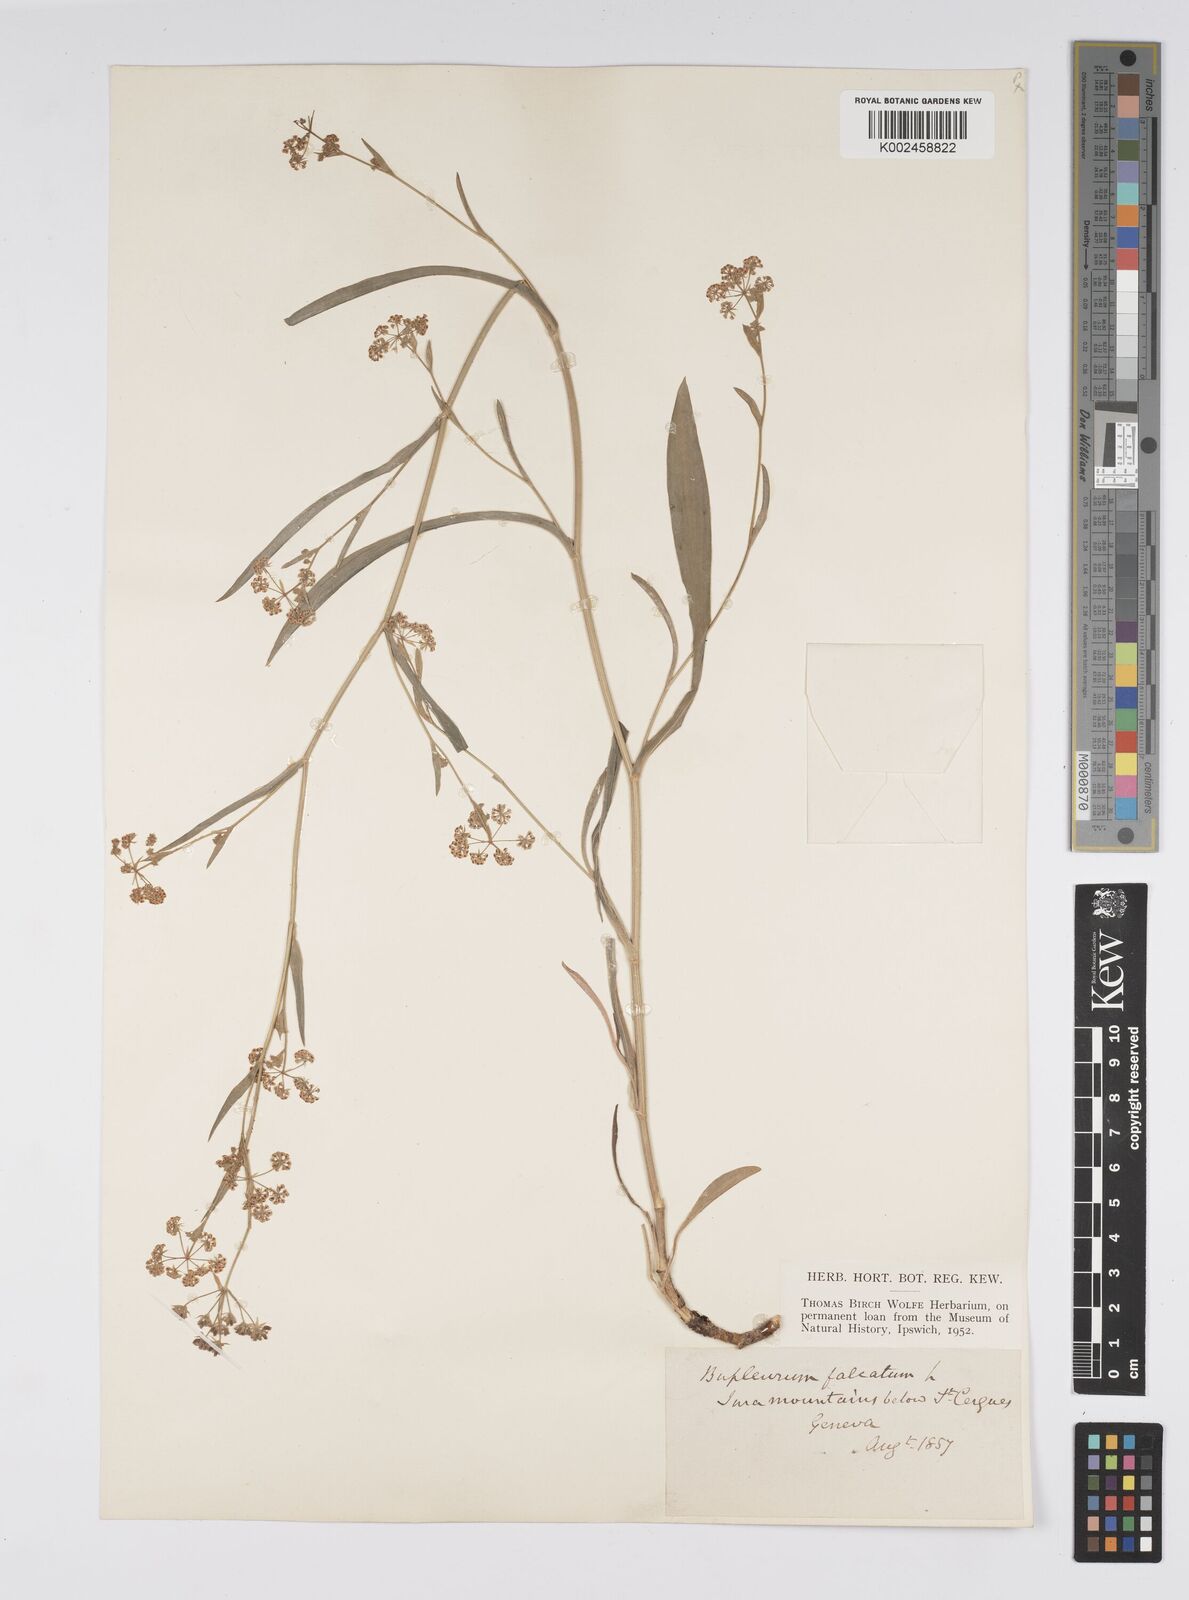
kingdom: Plantae
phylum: Tracheophyta
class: Magnoliopsida
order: Apiales
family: Apiaceae
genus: Bupleurum
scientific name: Bupleurum falcatum
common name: Sickle-leaved hare's-ear
